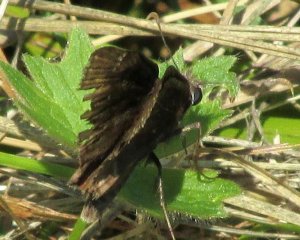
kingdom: Animalia
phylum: Arthropoda
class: Insecta
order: Lepidoptera
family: Hesperiidae
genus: Autochton
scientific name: Autochton
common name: Northern Cloudywing
